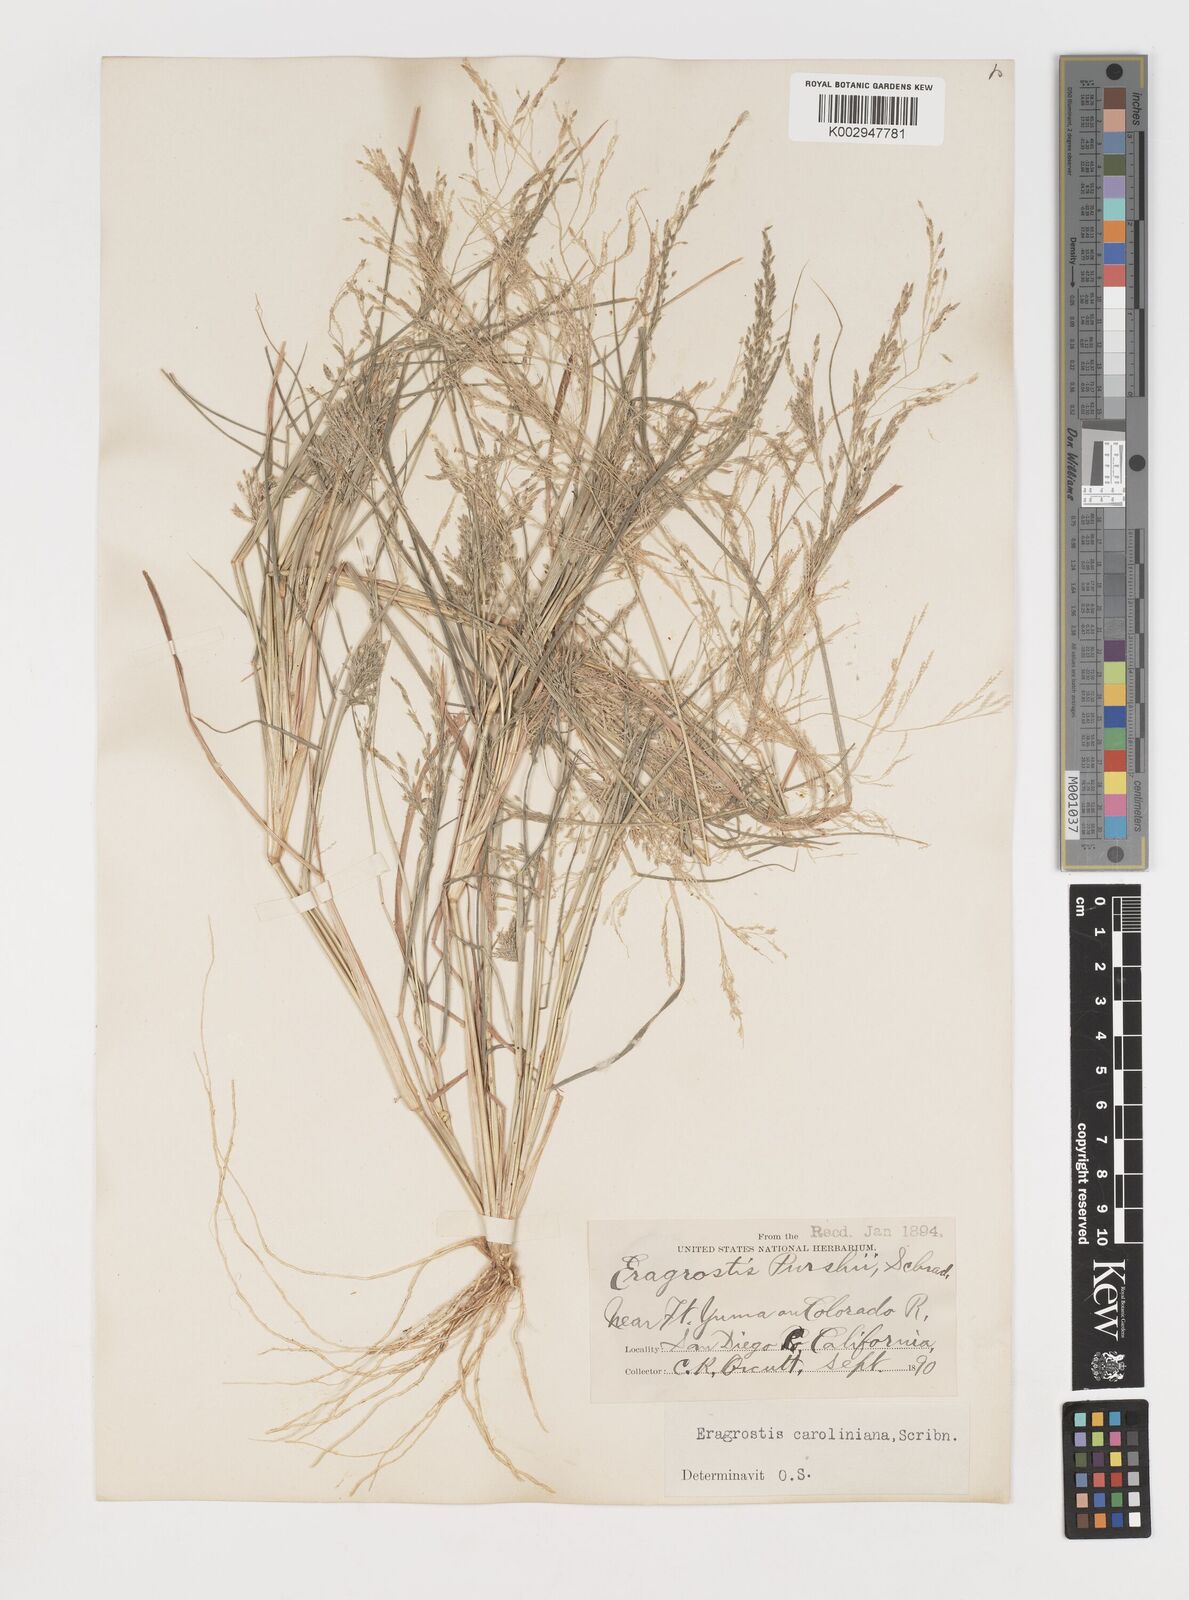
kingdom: Plantae
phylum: Tracheophyta
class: Liliopsida
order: Poales
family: Poaceae
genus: Eragrostis
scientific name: Eragrostis pectinacea
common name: Tufted lovegrass
